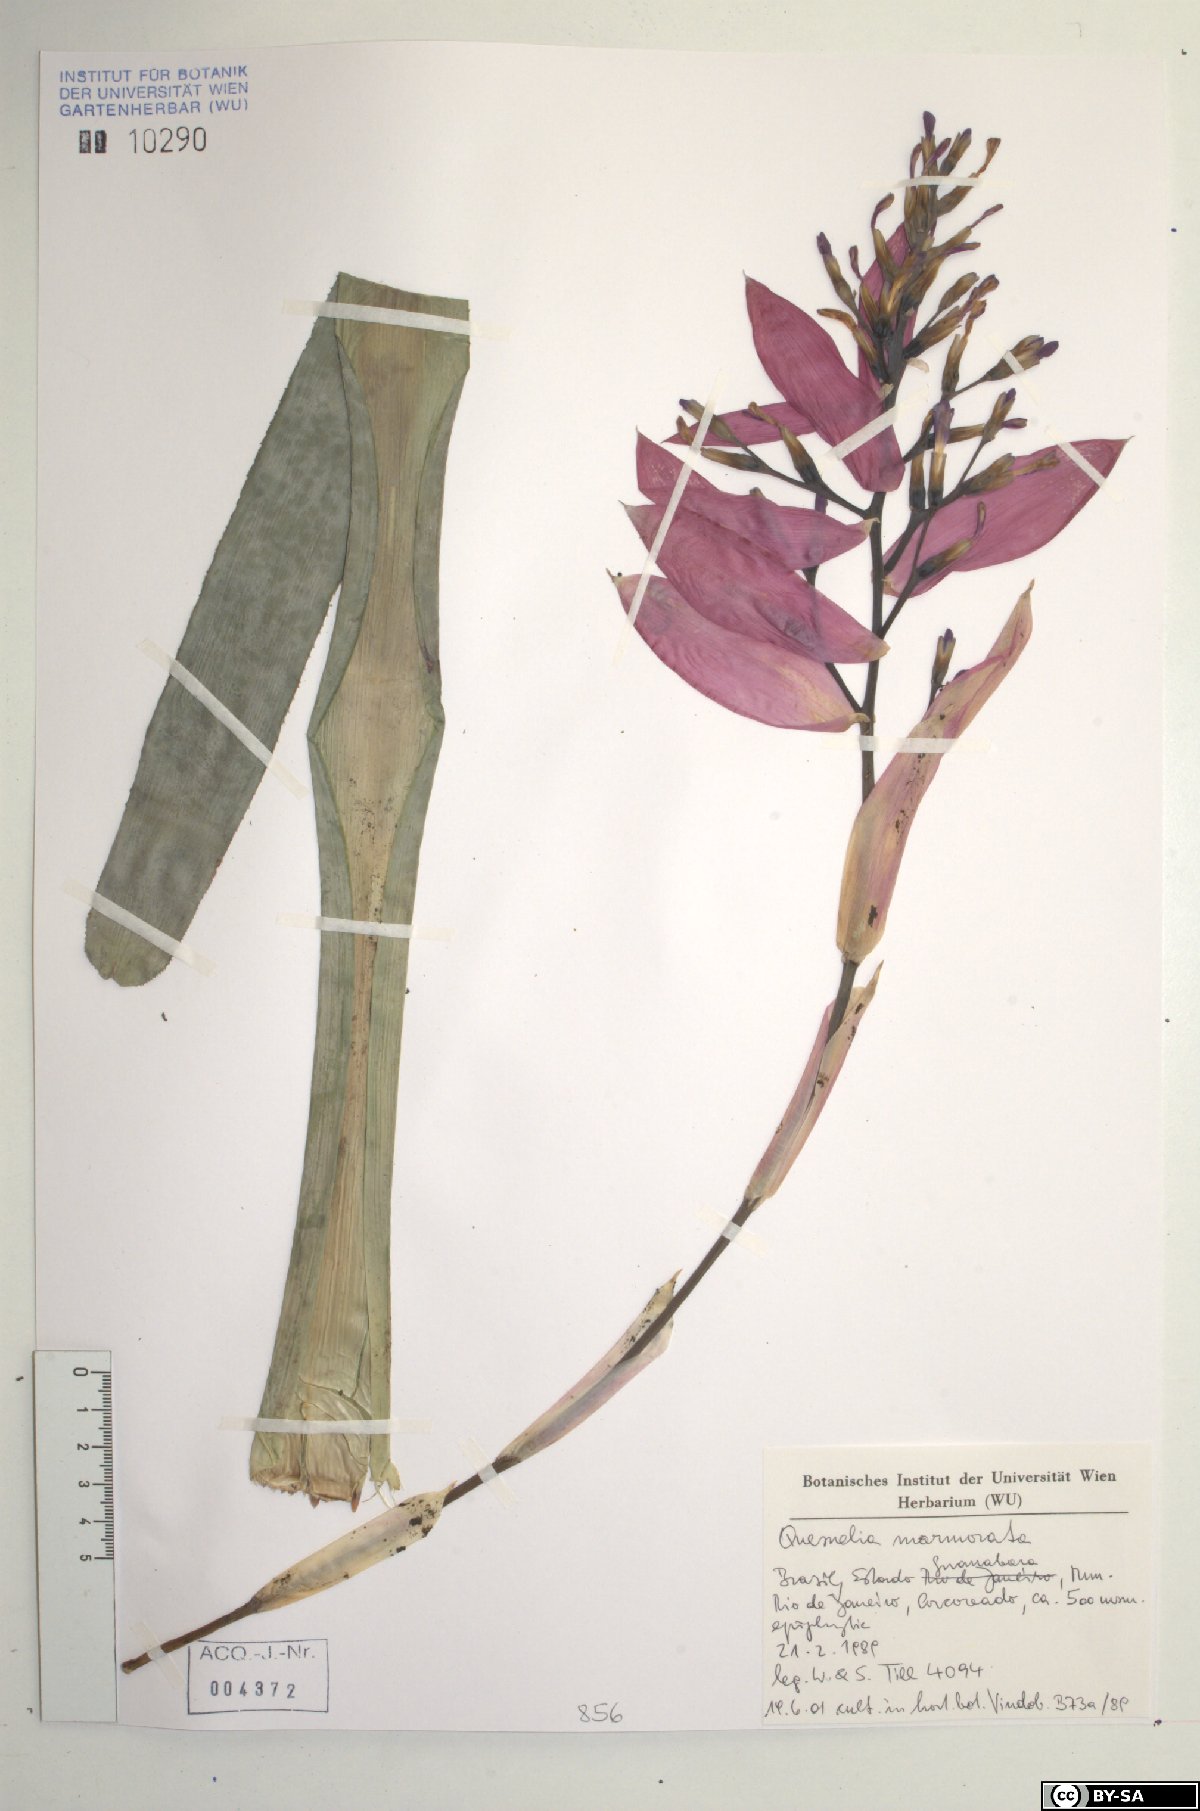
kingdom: Plantae
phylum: Tracheophyta
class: Liliopsida
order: Poales
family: Bromeliaceae
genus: Quesnelia
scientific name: Quesnelia marmorata
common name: Grecian urnplant
